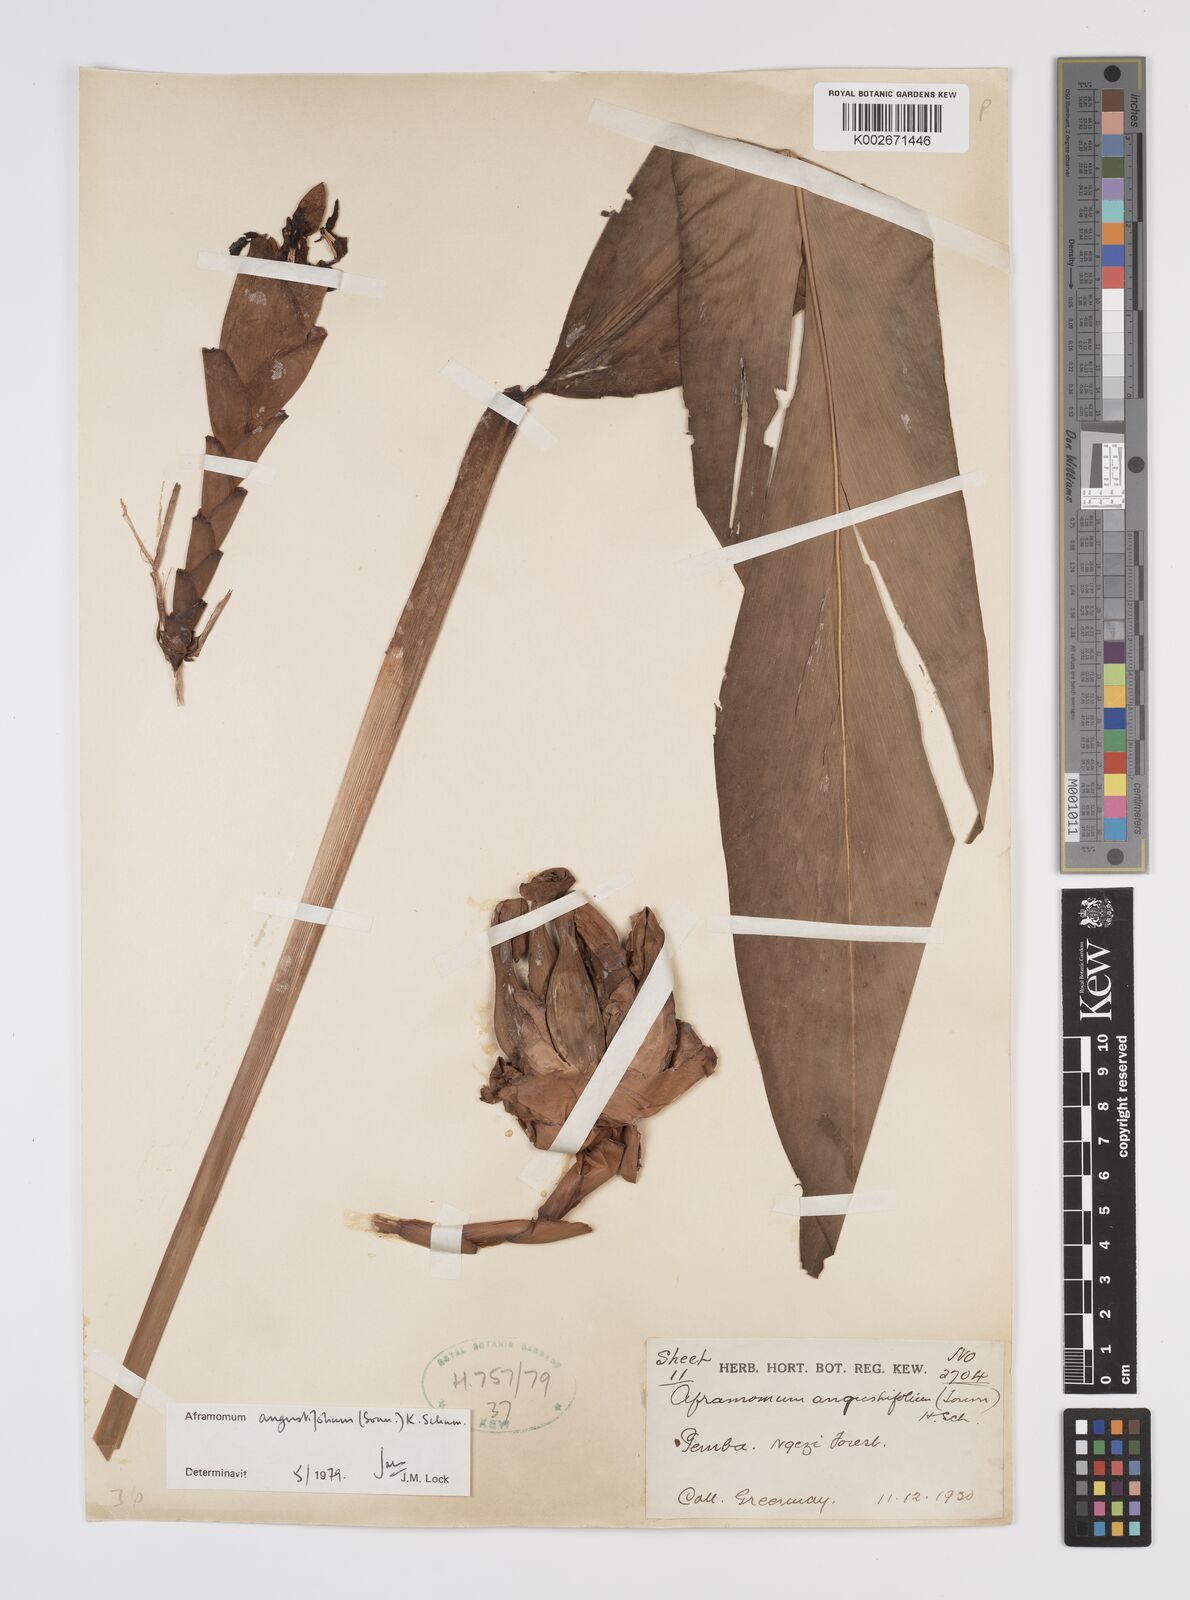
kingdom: Plantae
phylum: Tracheophyta
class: Liliopsida
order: Zingiberales
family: Zingiberaceae
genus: Aframomum
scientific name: Aframomum angustifolium
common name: Guinea grains
